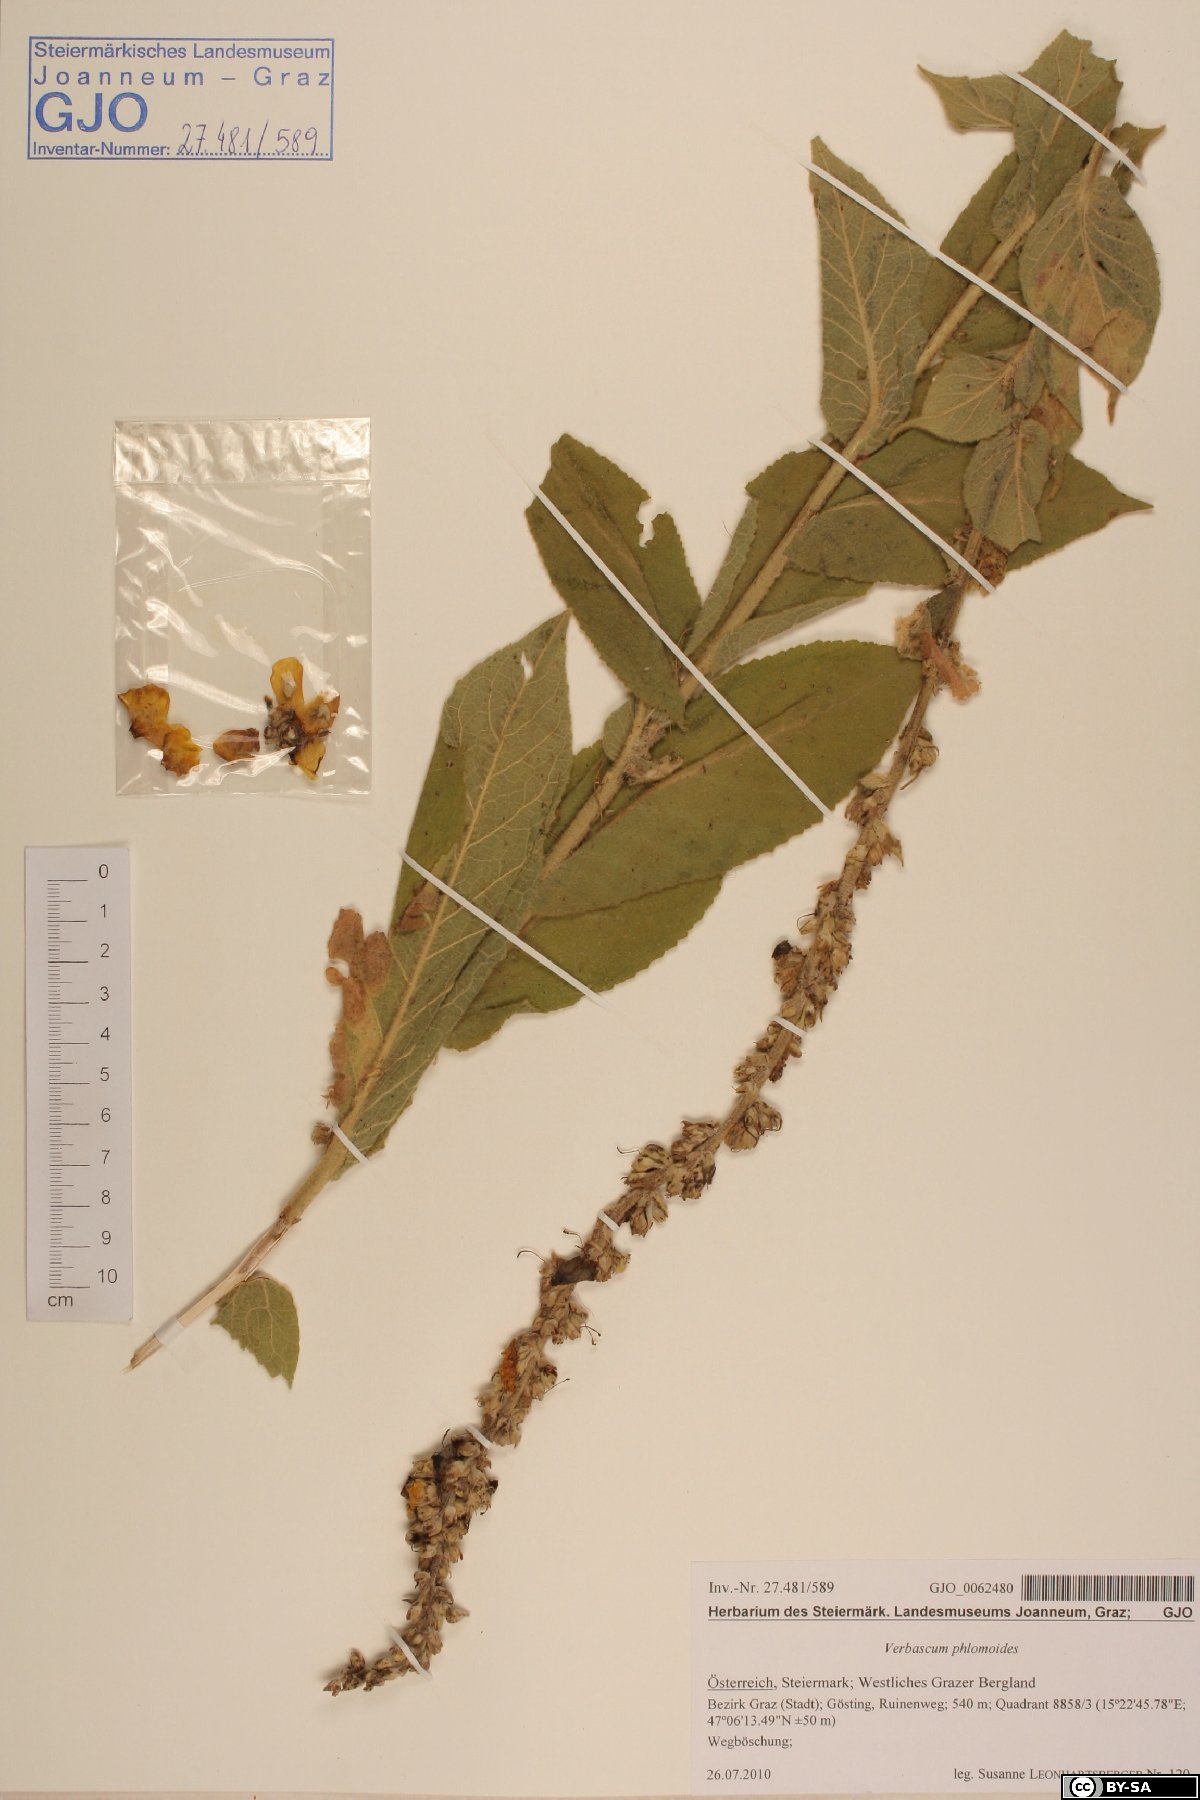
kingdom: Plantae
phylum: Tracheophyta
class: Magnoliopsida
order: Lamiales
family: Scrophulariaceae
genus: Verbascum
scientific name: Verbascum phlomoides
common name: Orange mullein
